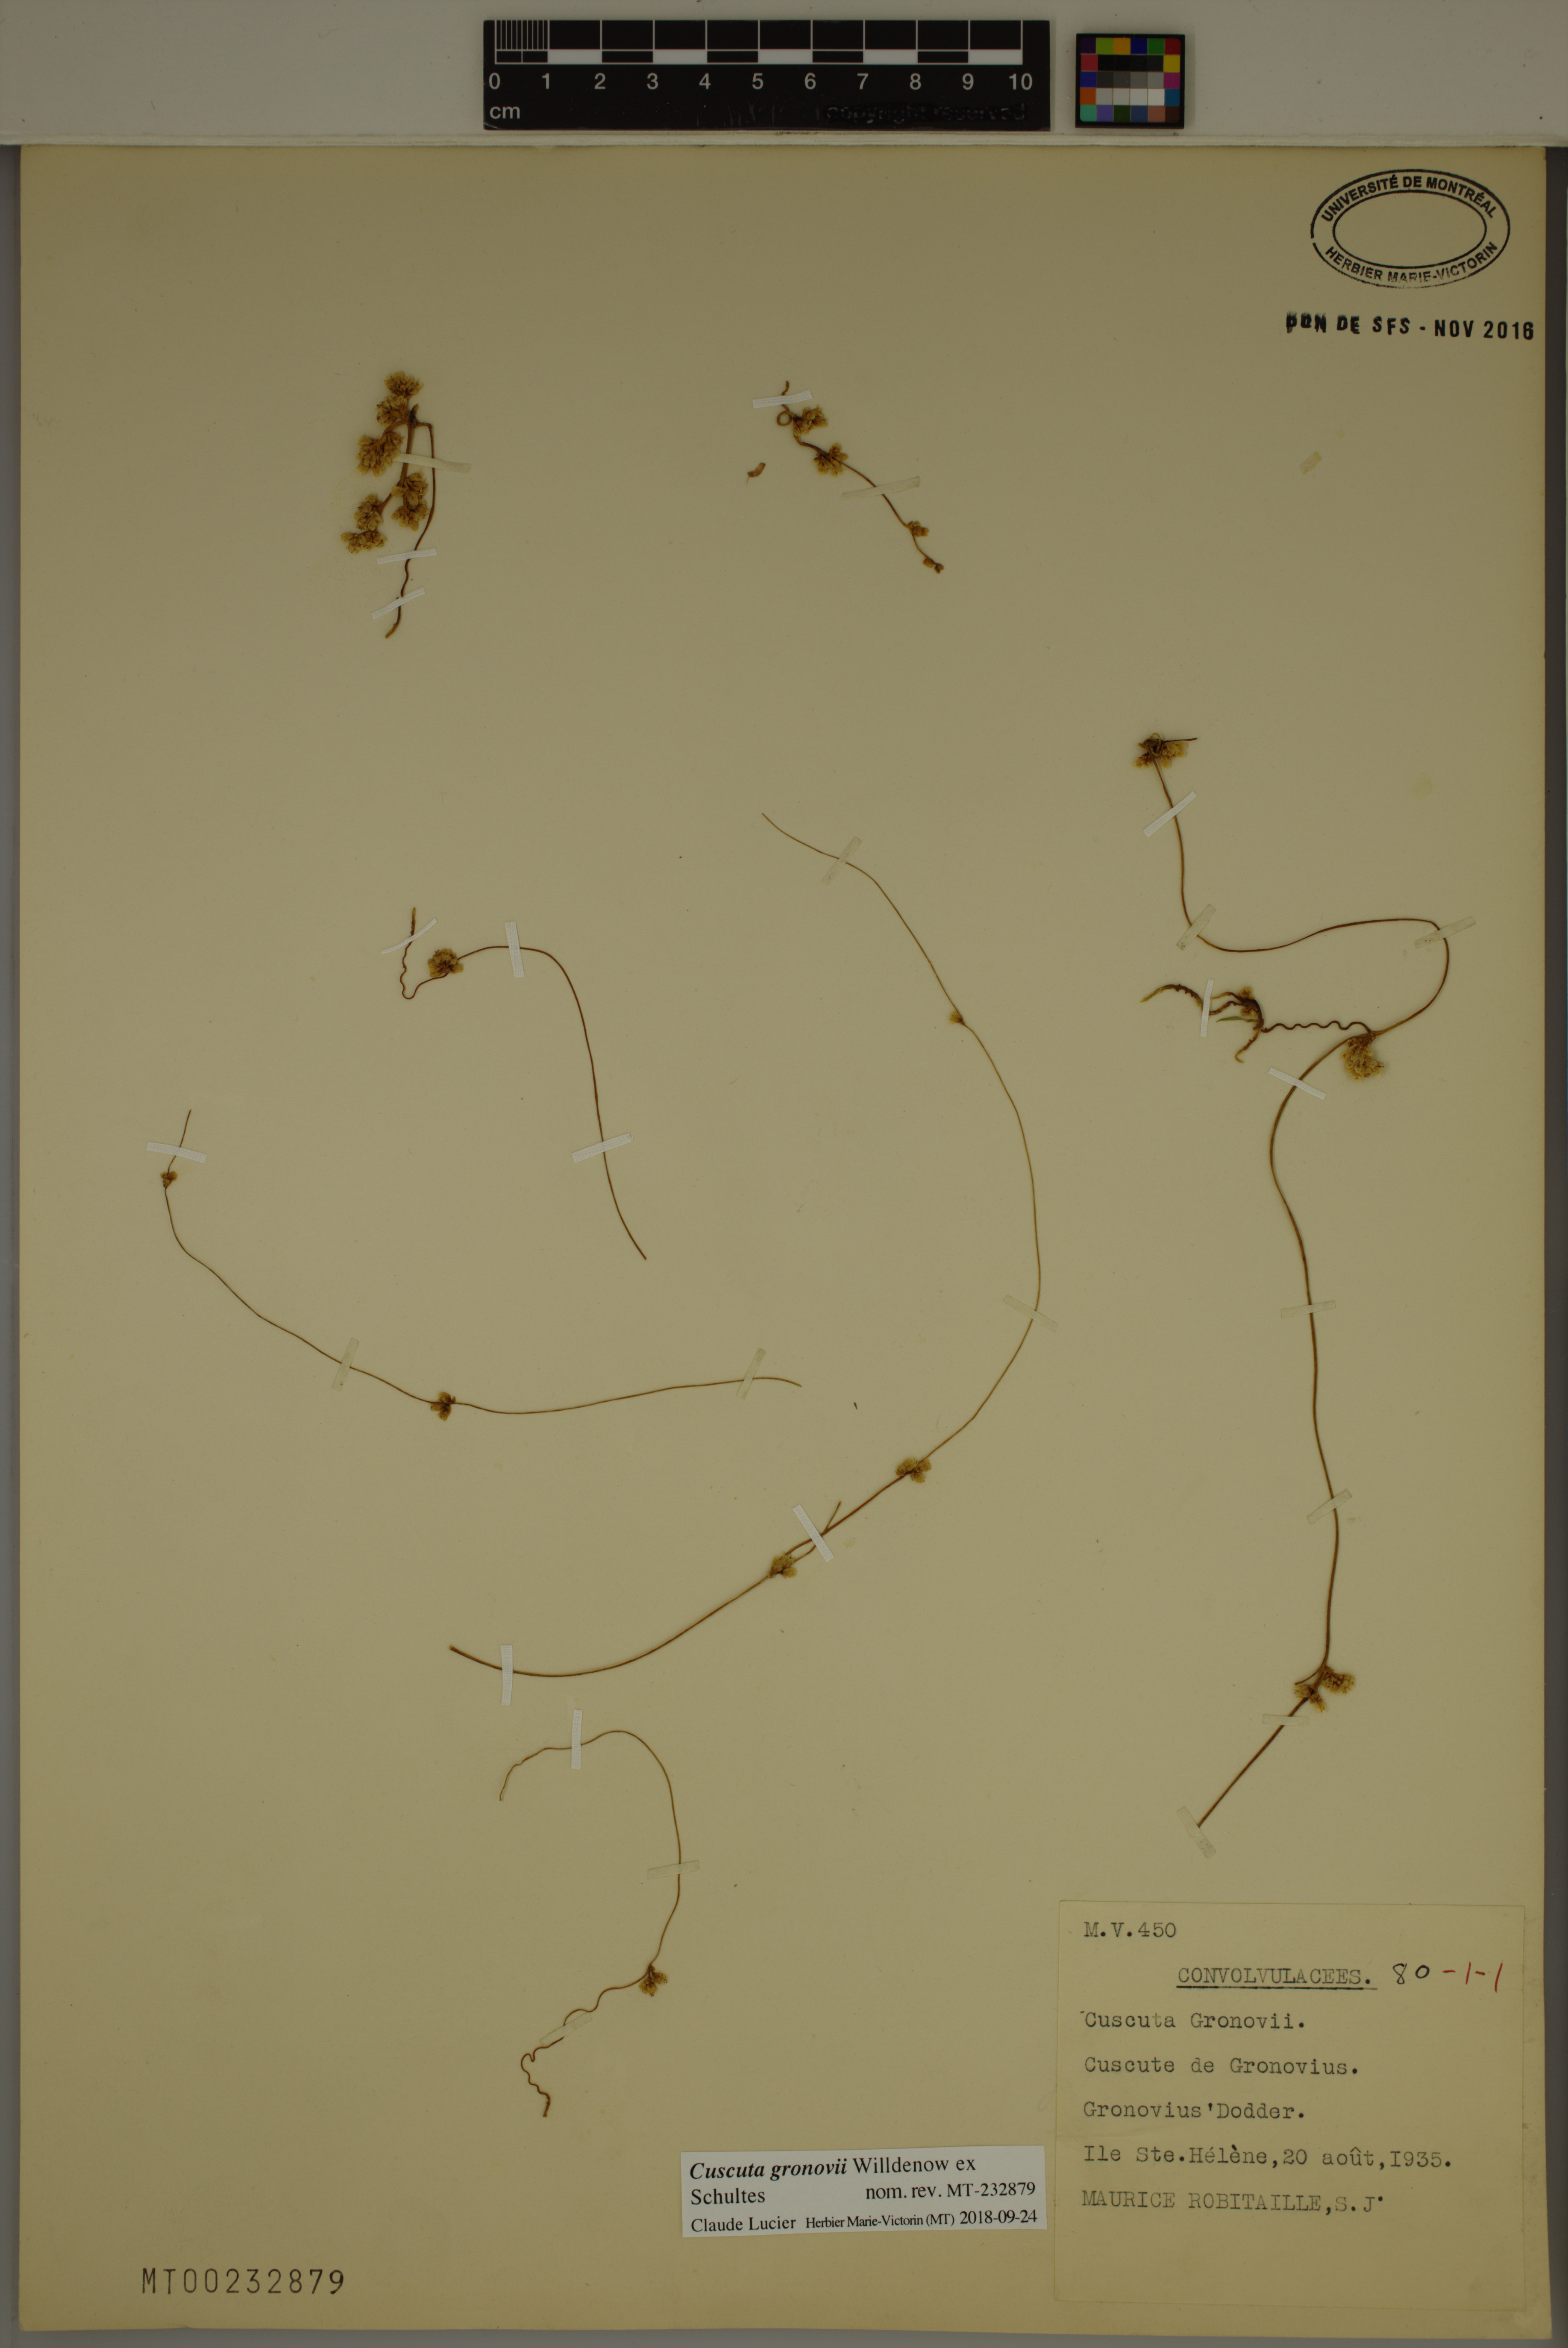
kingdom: Plantae
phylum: Tracheophyta
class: Magnoliopsida
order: Solanales
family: Convolvulaceae
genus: Cuscuta
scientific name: Cuscuta gronovii
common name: Common dodder
